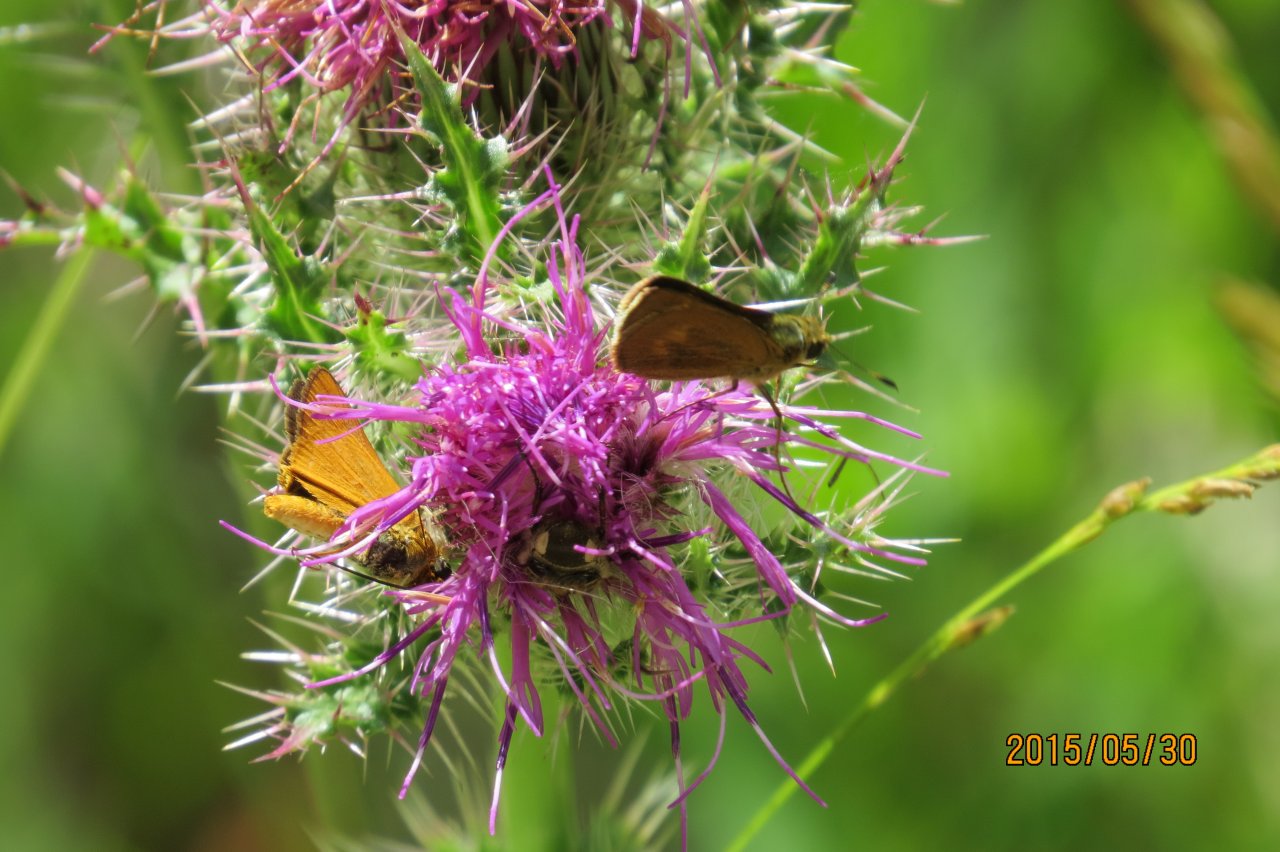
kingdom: Animalia
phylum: Arthropoda
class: Insecta
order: Lepidoptera
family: Hesperiidae
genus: Atrytone
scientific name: Atrytone delaware
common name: Delaware Skipper
